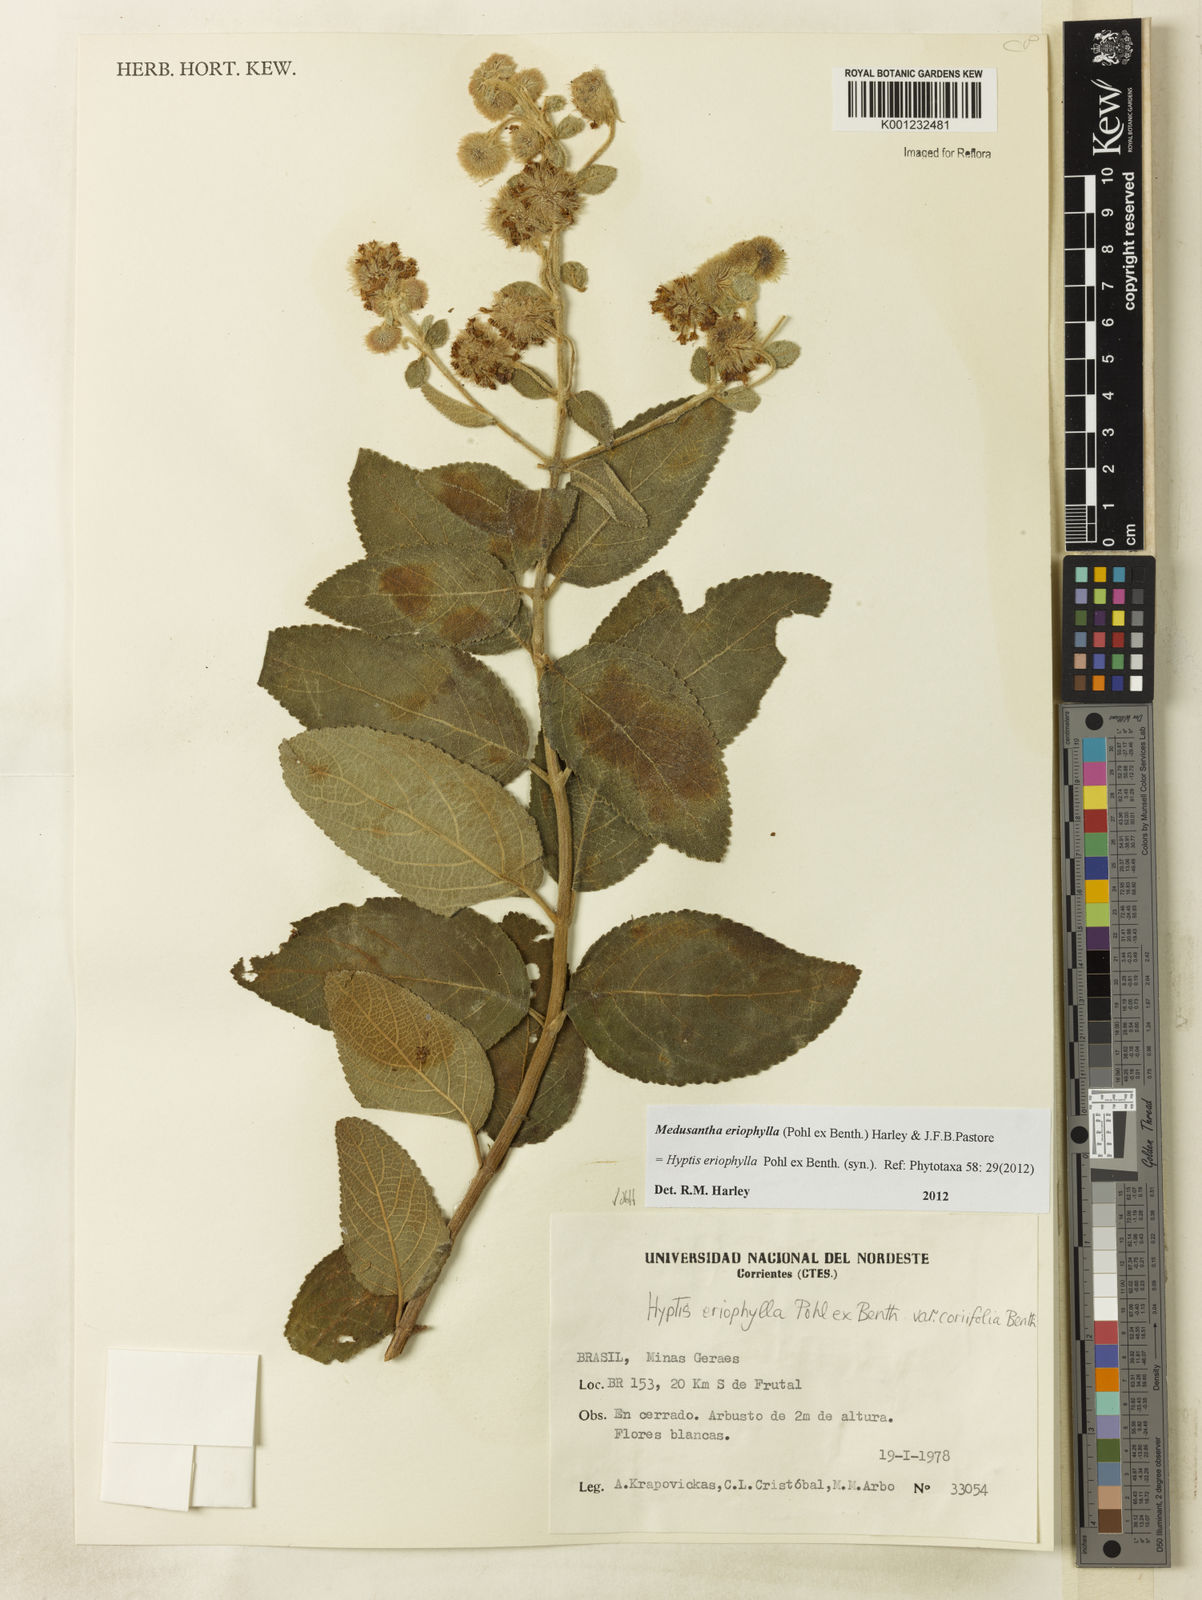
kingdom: Plantae
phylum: Tracheophyta
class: Magnoliopsida
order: Lamiales
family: Lamiaceae
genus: Medusantha
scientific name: Medusantha eriophylla
